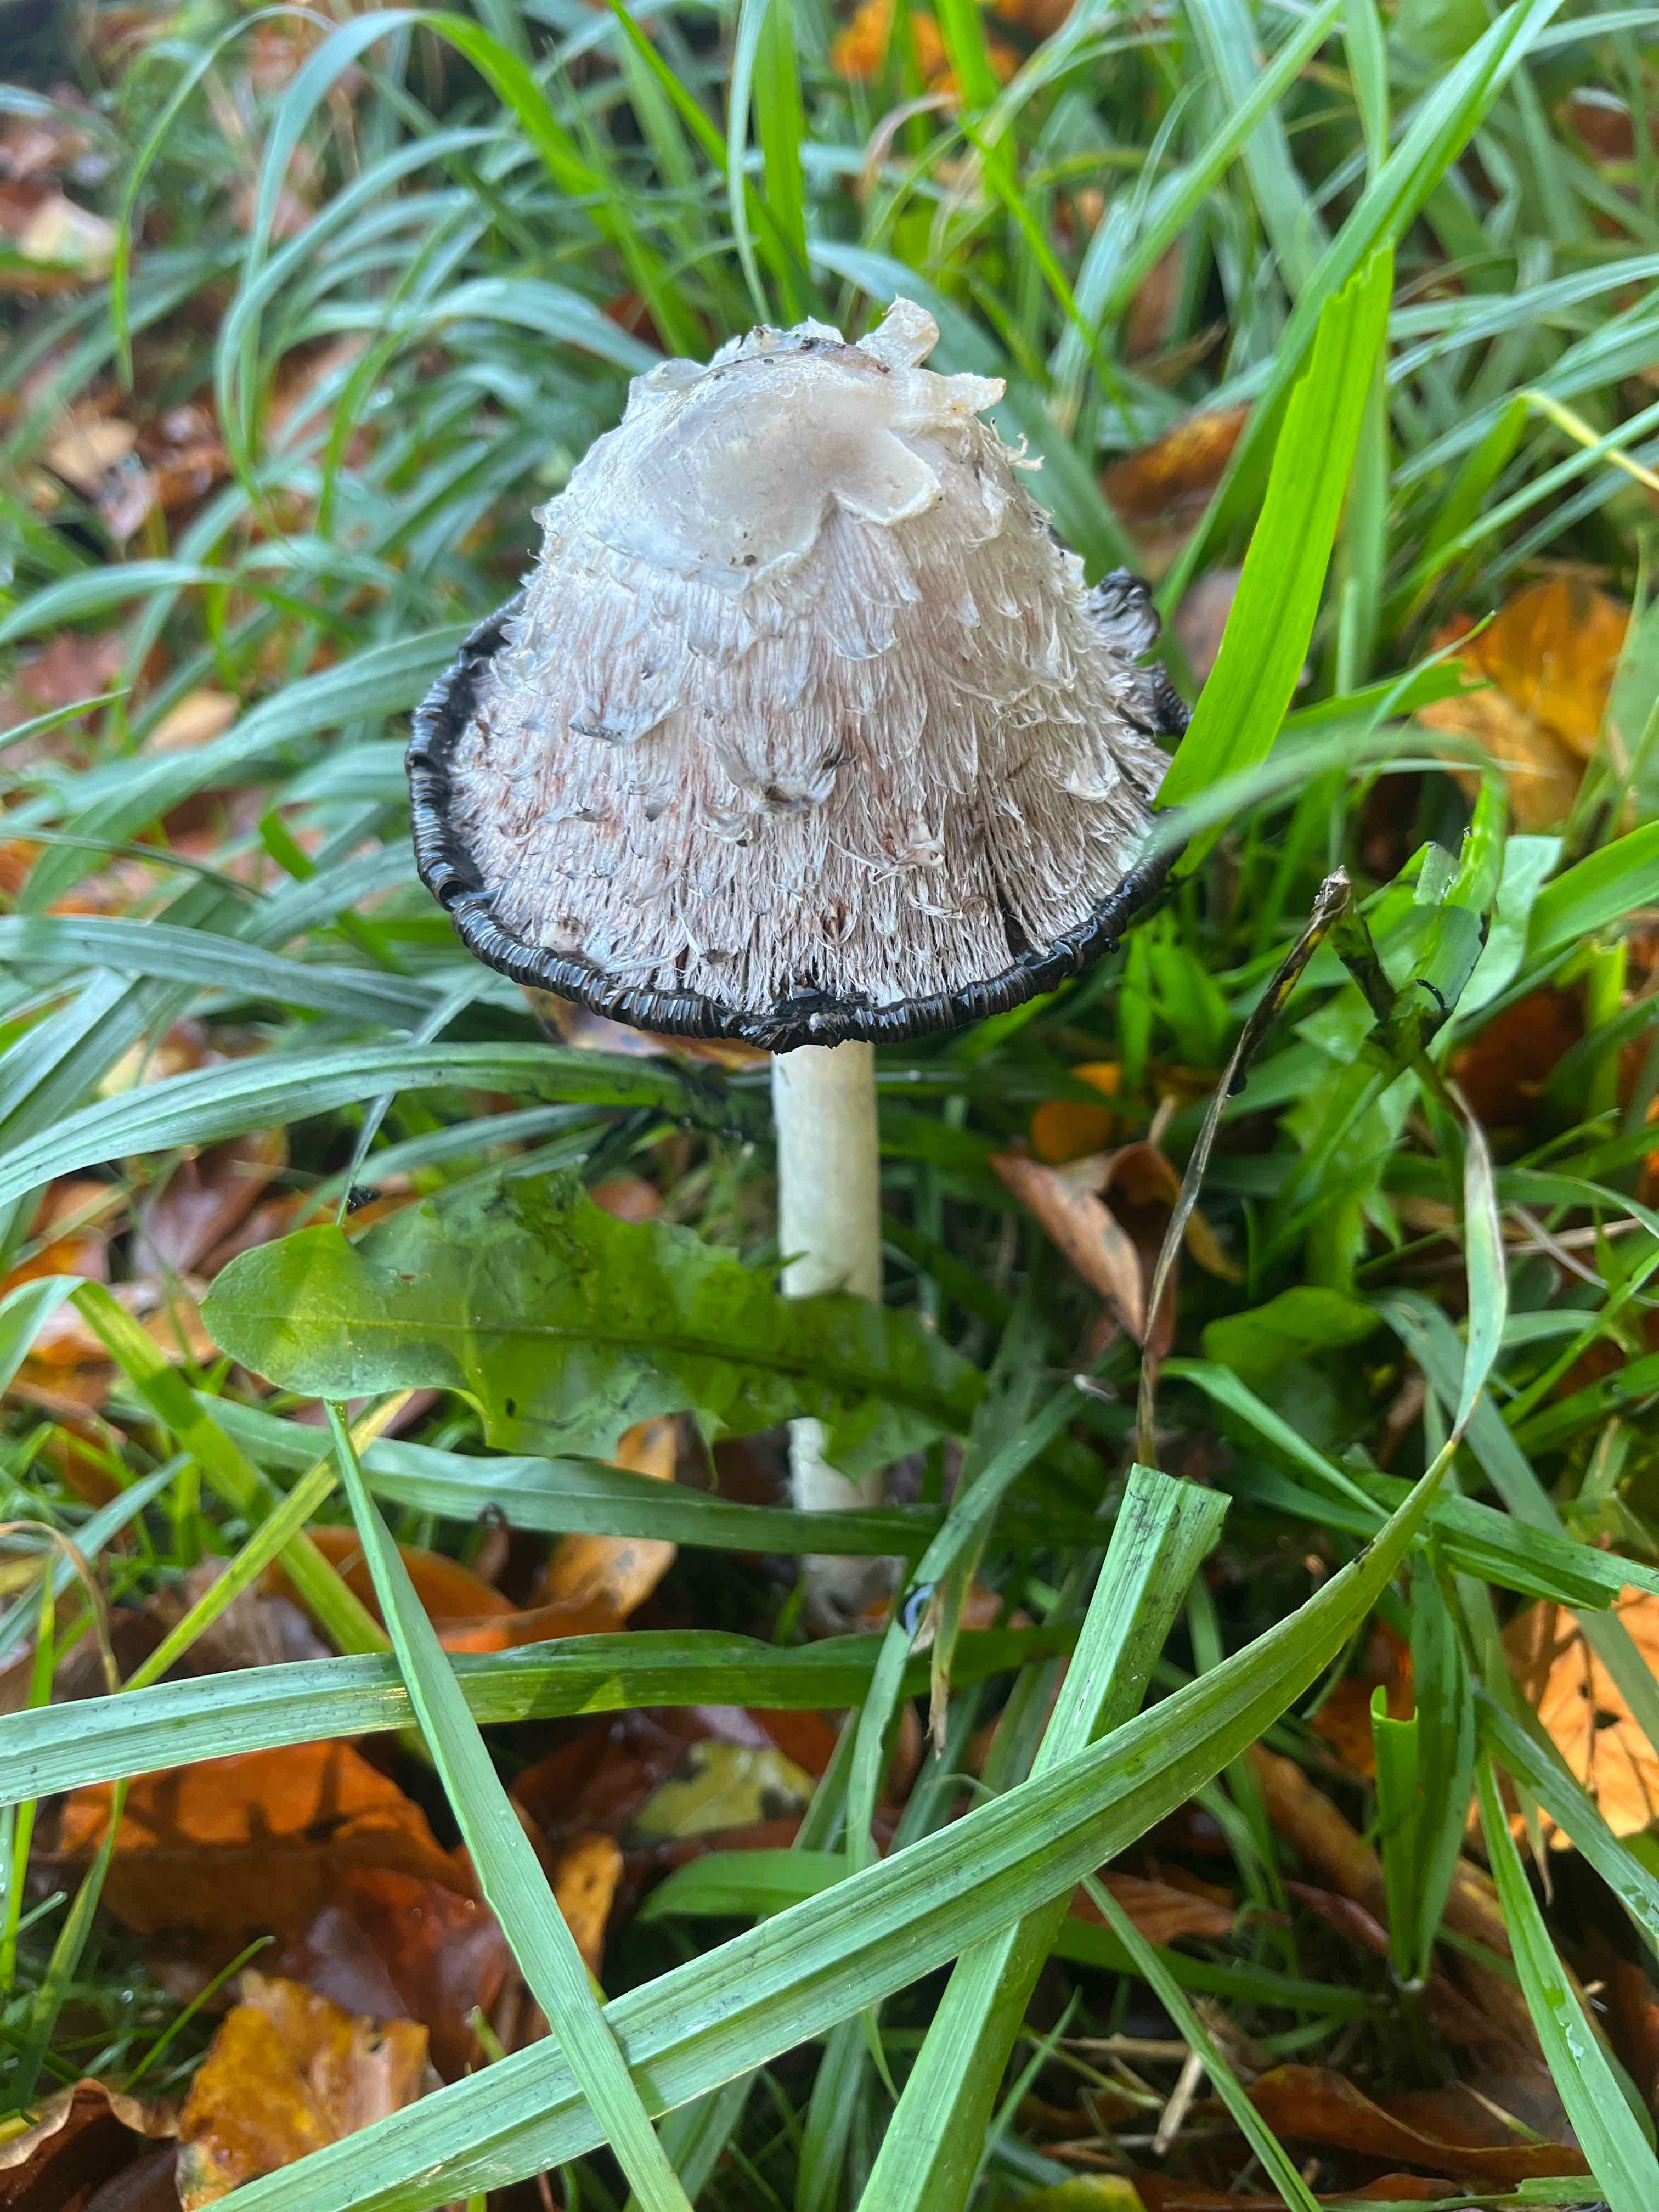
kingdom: Fungi
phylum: Basidiomycota
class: Agaricomycetes
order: Agaricales
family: Agaricaceae
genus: Coprinus
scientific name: Coprinus comatus
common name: stor parykhat
